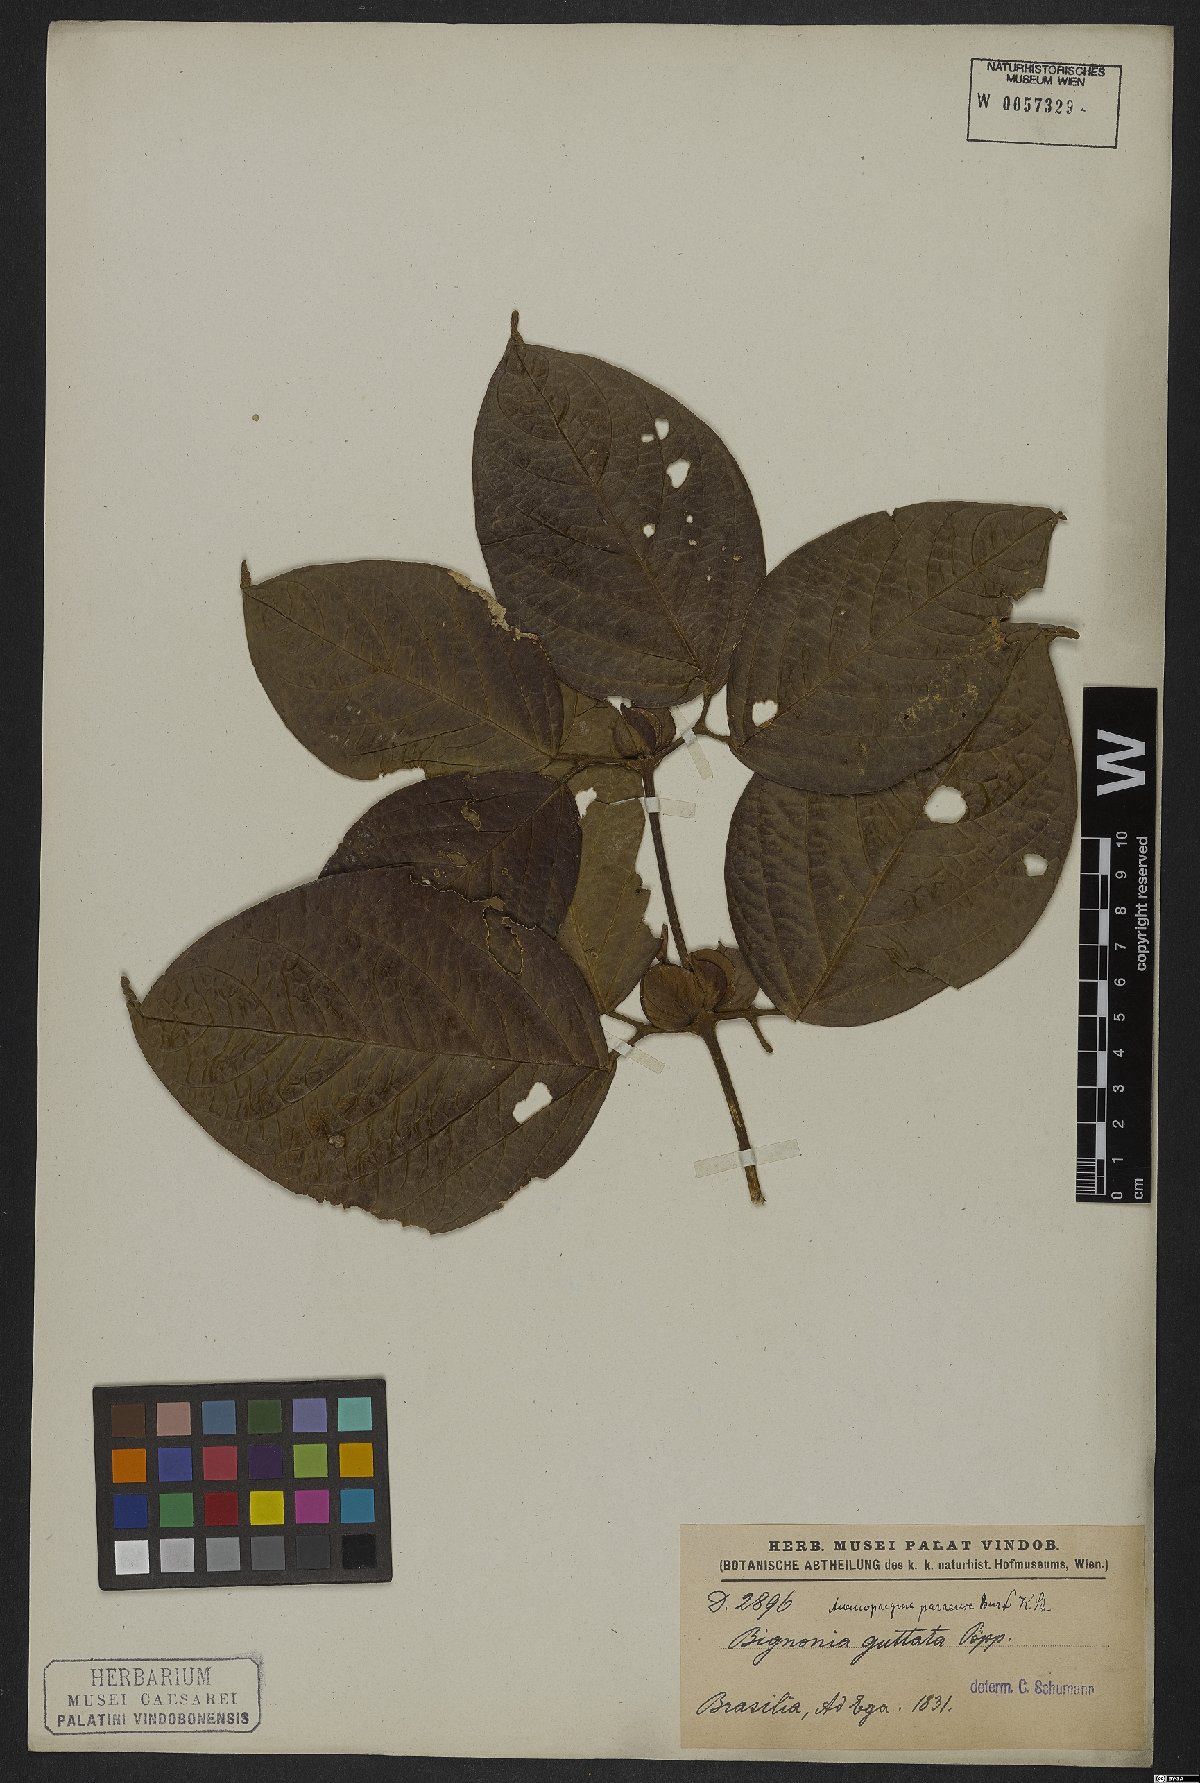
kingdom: Plantae
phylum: Tracheophyta
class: Magnoliopsida
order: Lamiales
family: Bignoniaceae
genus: Anemopaegma
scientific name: Anemopaegma paraense
